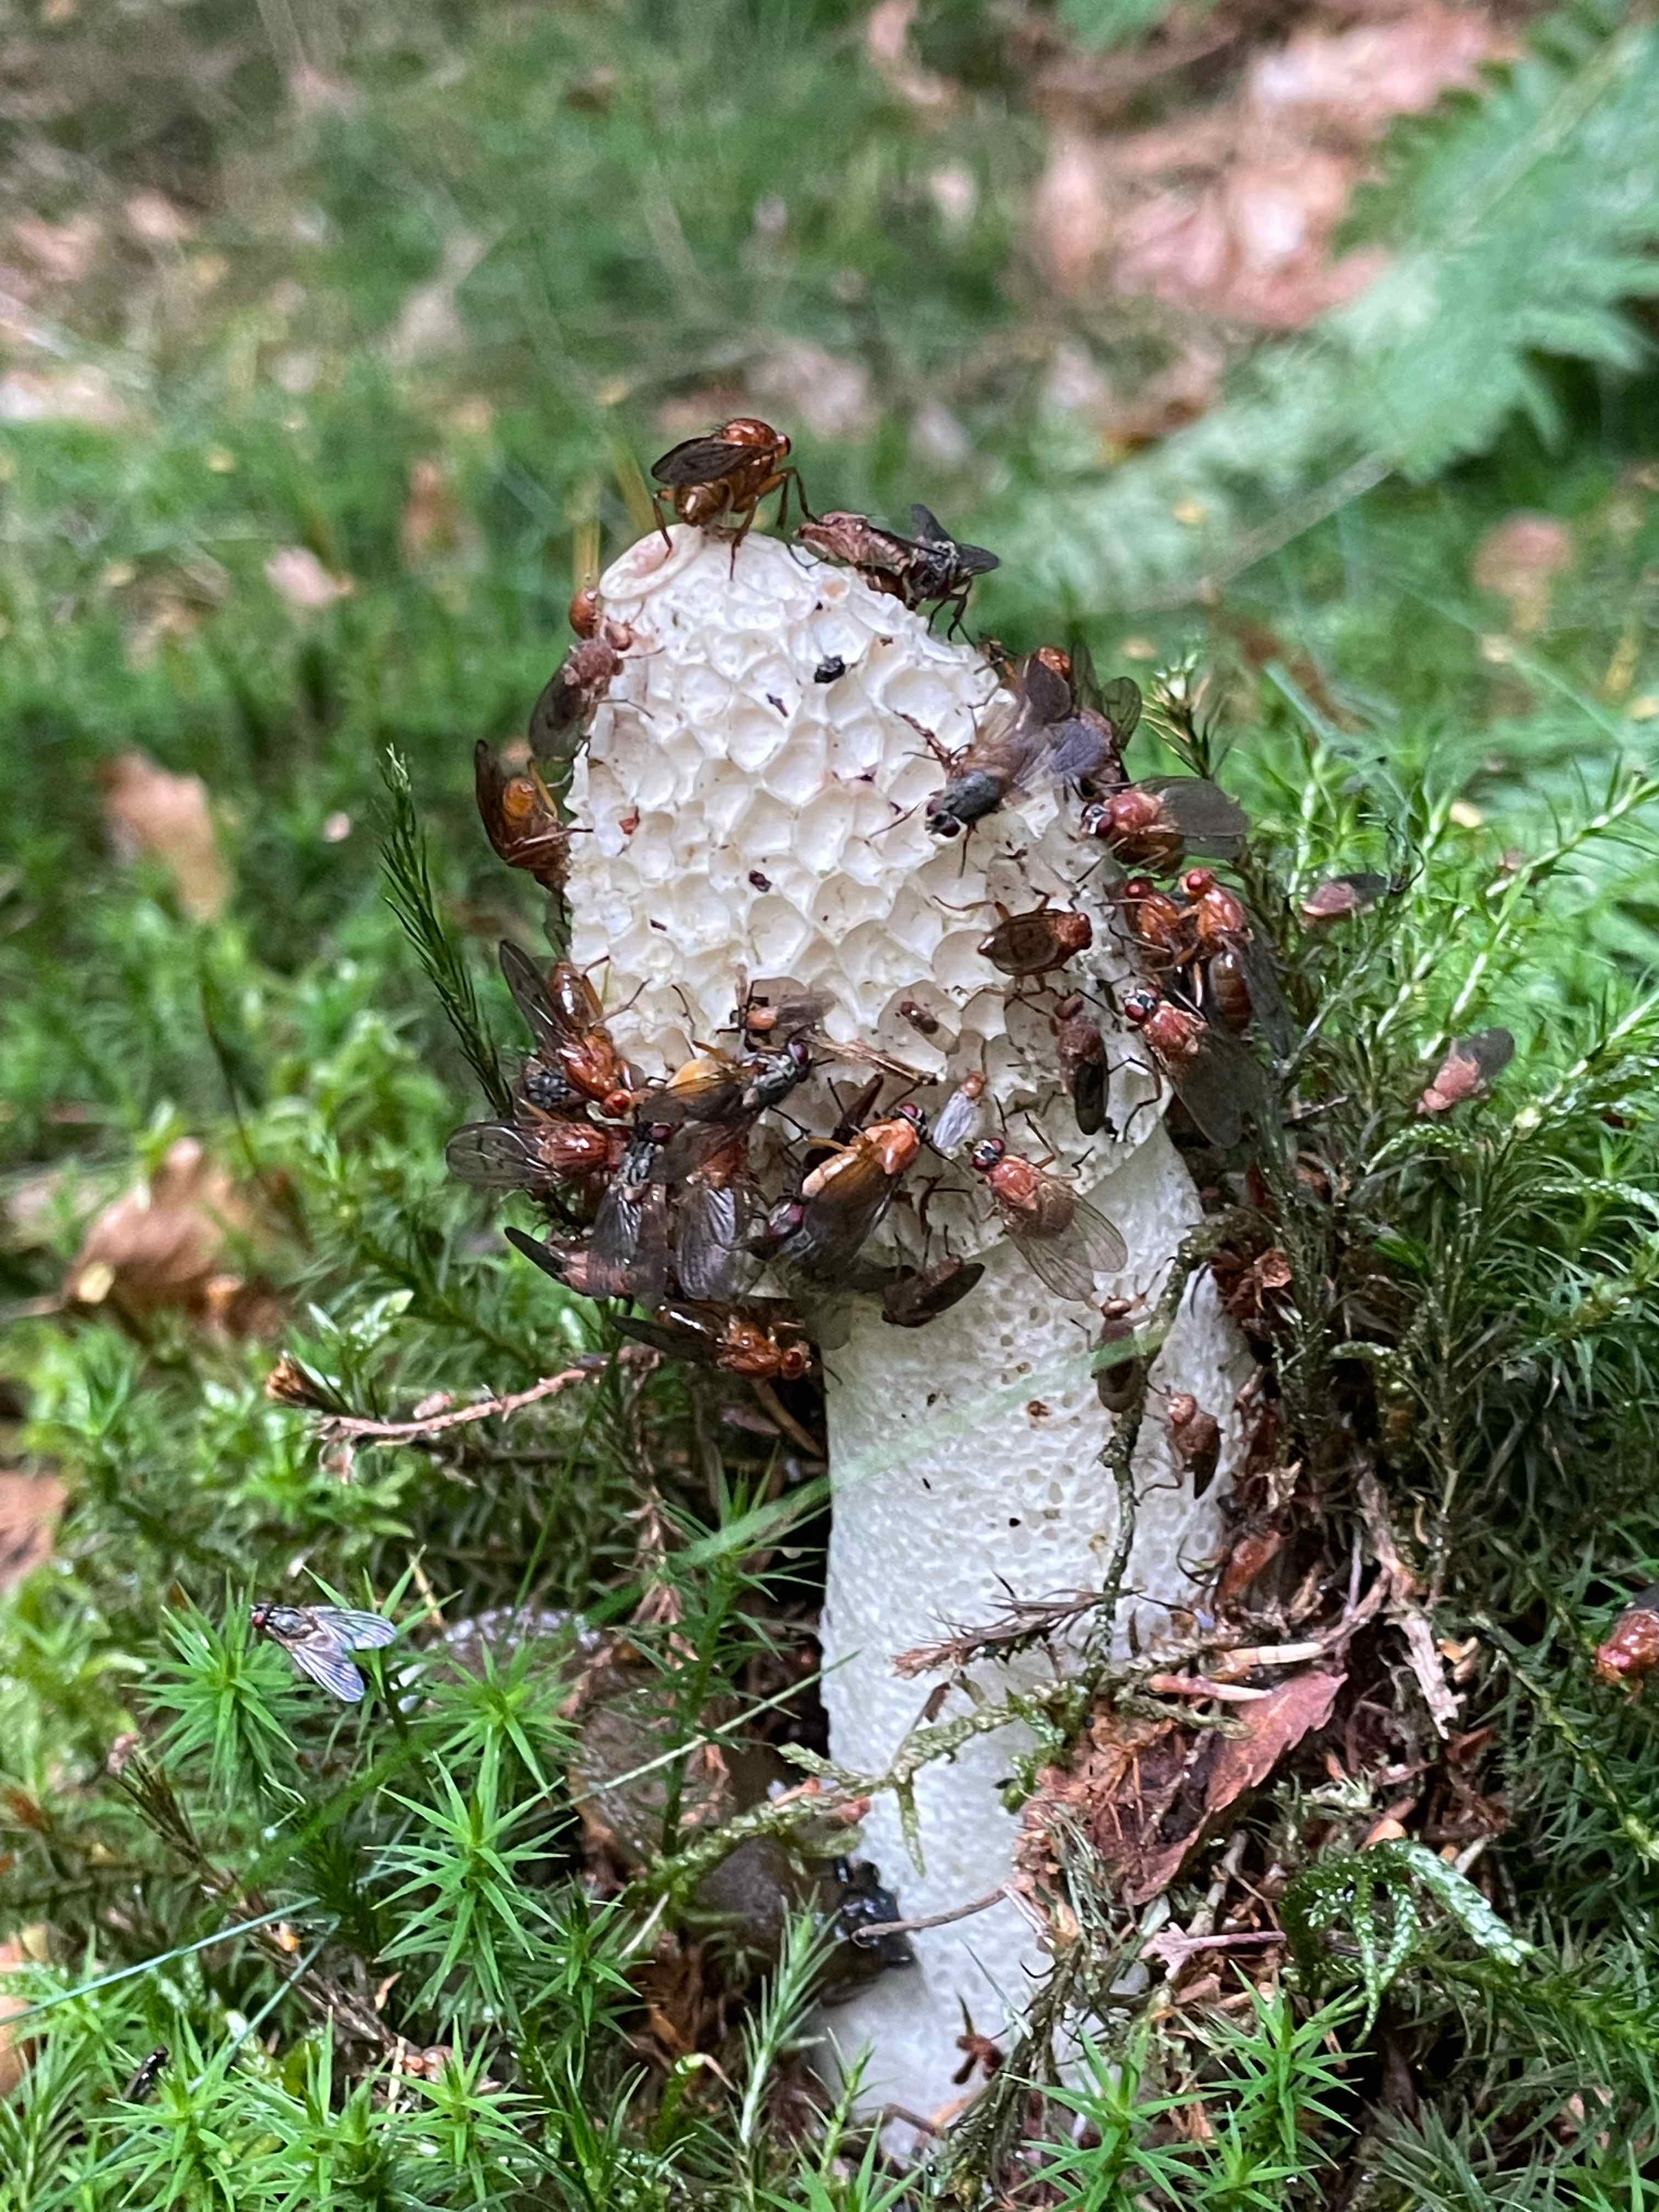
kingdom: Fungi
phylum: Basidiomycota
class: Agaricomycetes
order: Phallales
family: Phallaceae
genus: Phallus
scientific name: Phallus impudicus
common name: almindelig stinksvamp
